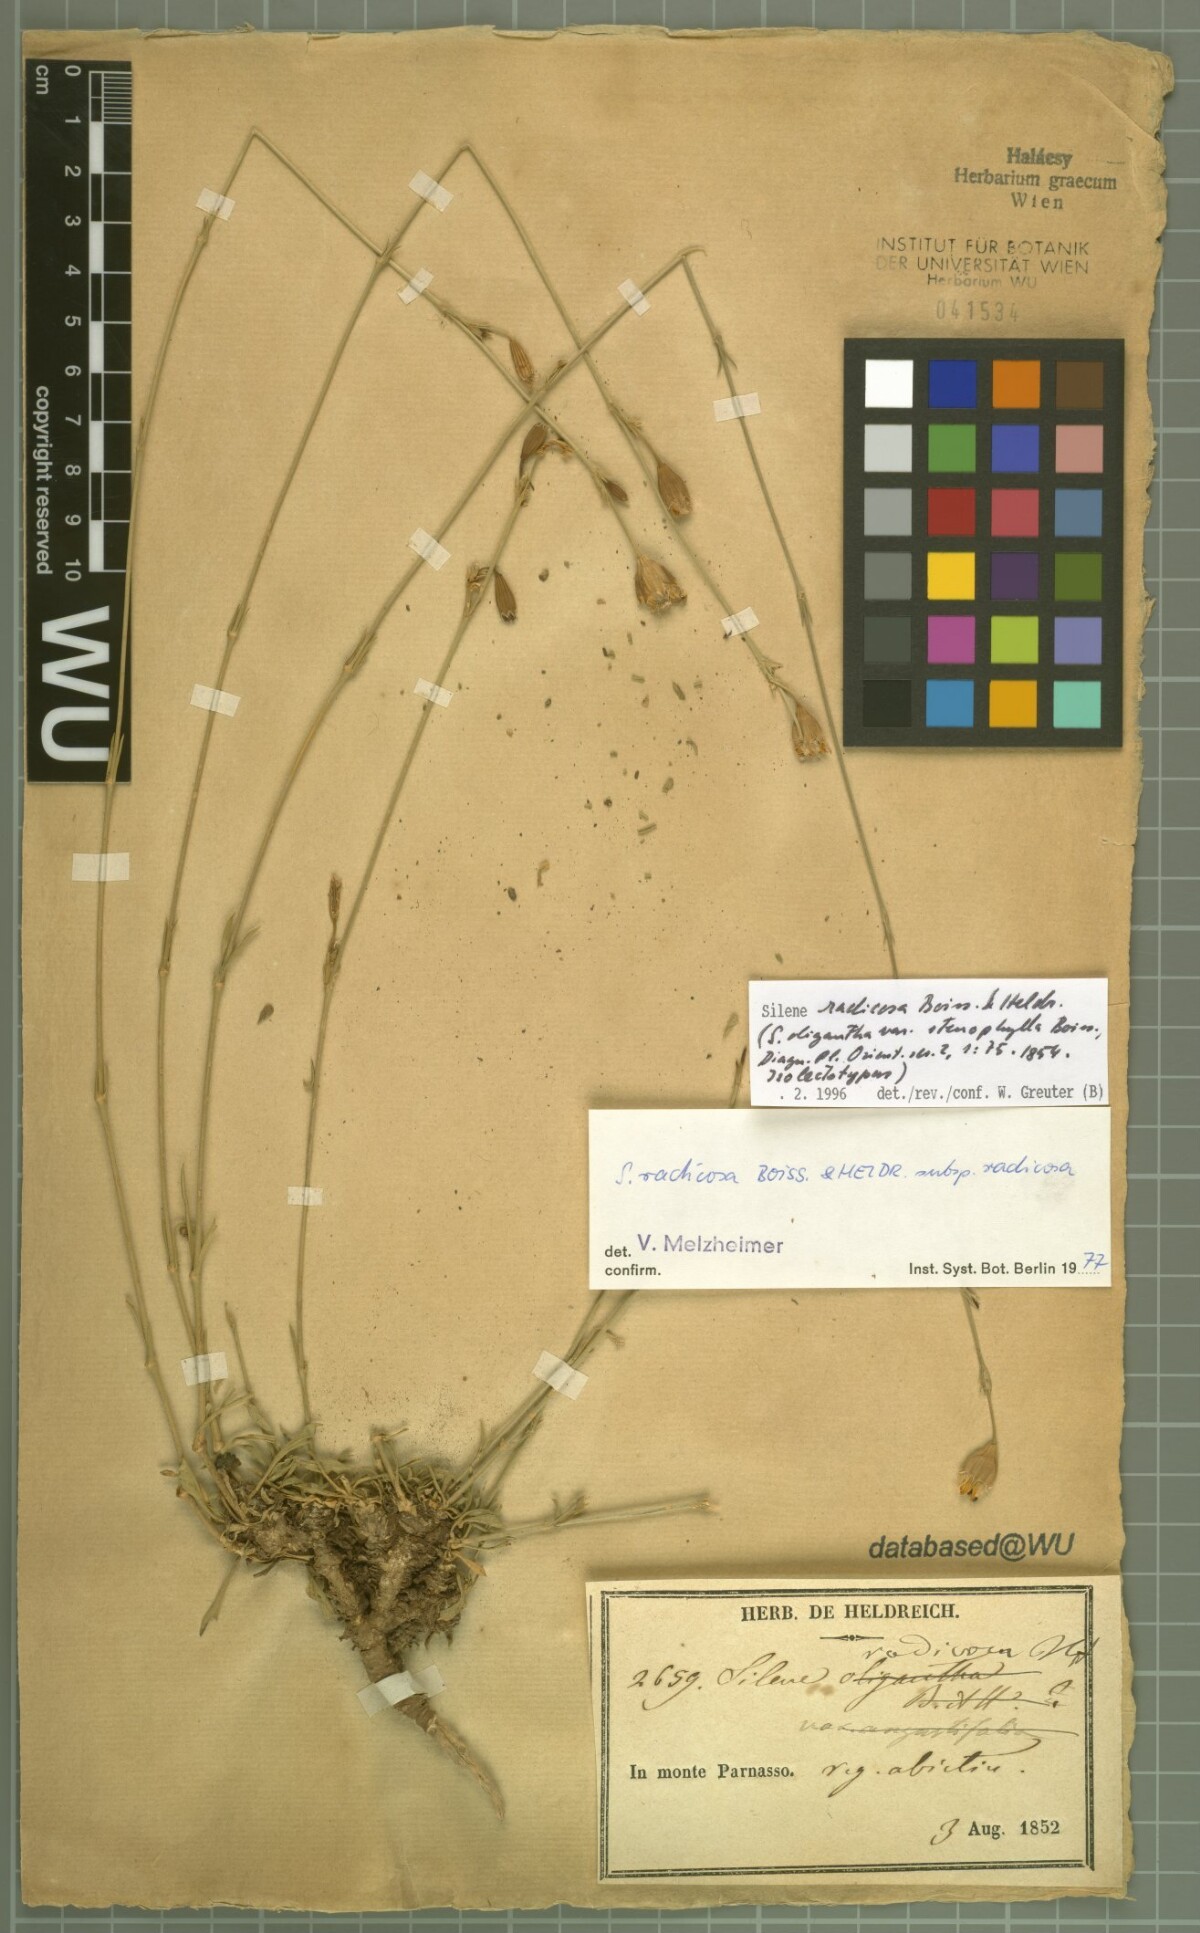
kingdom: Plantae
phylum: Tracheophyta
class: Magnoliopsida
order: Caryophyllales
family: Caryophyllaceae
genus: Silene
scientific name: Silene radicosa
